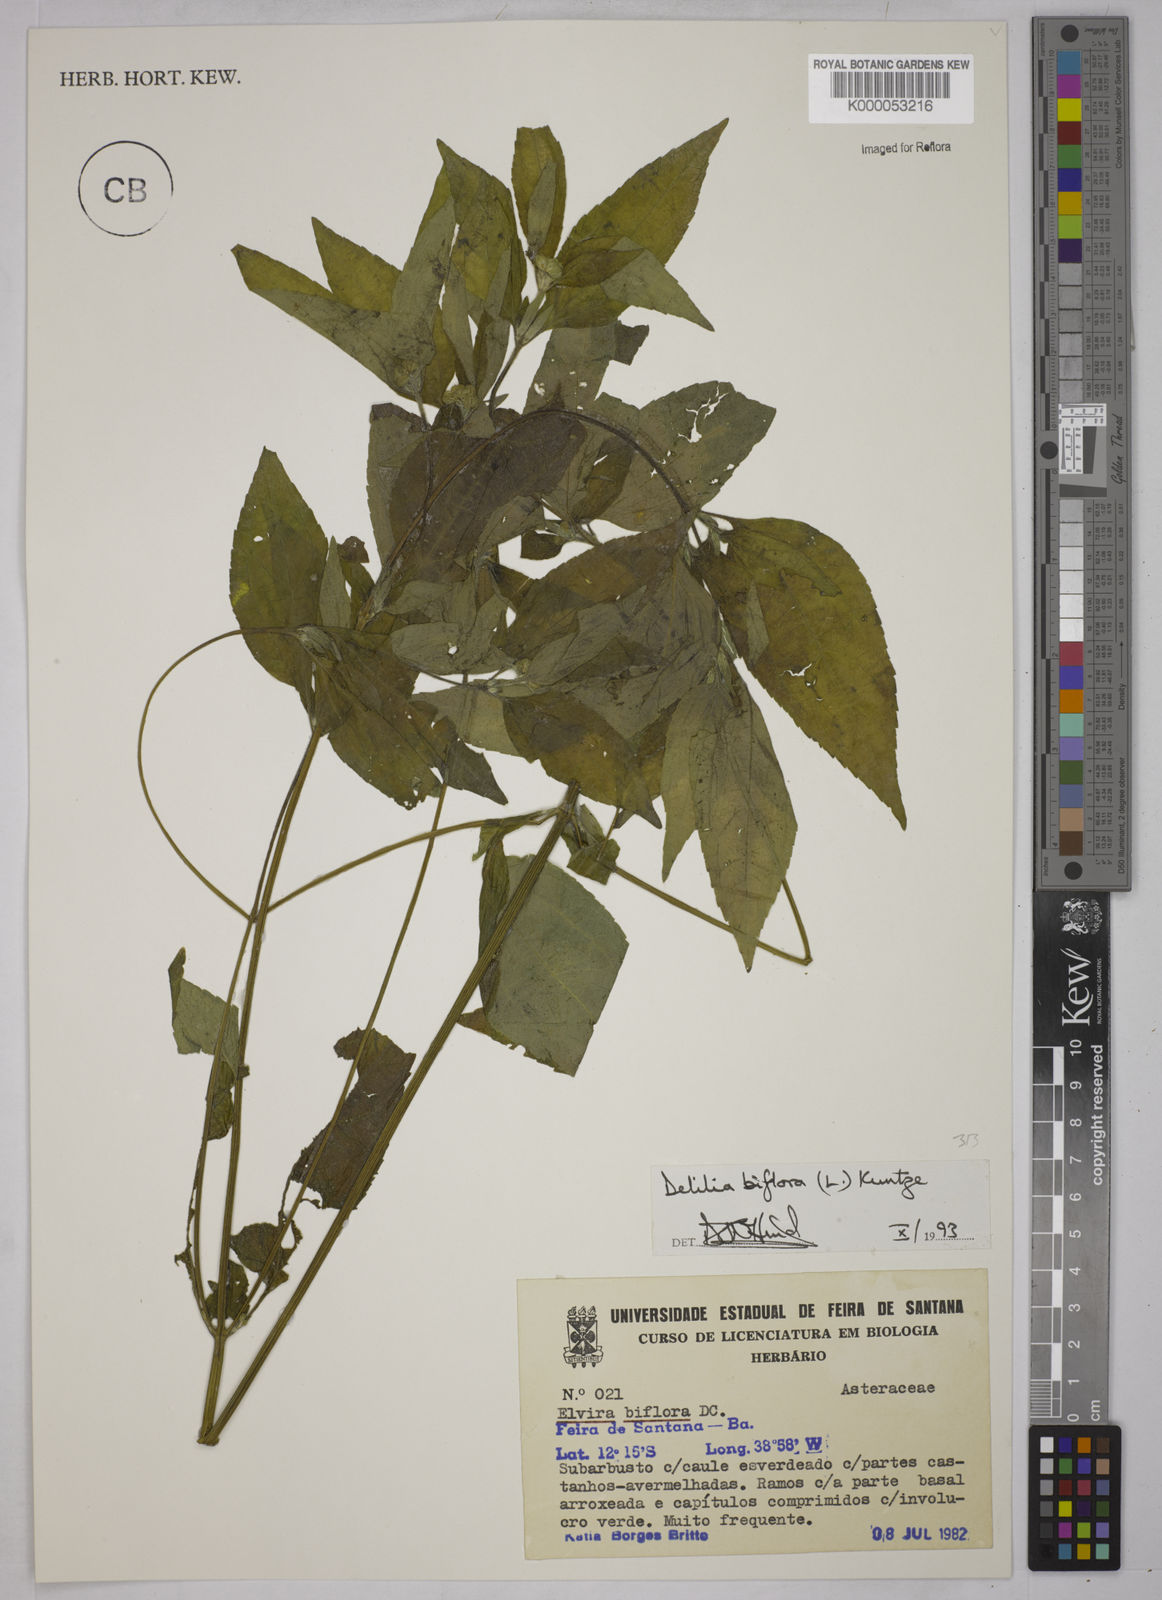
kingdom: Plantae
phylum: Tracheophyta
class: Magnoliopsida
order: Asterales
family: Asteraceae
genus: Delilia
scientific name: Delilia biflora
